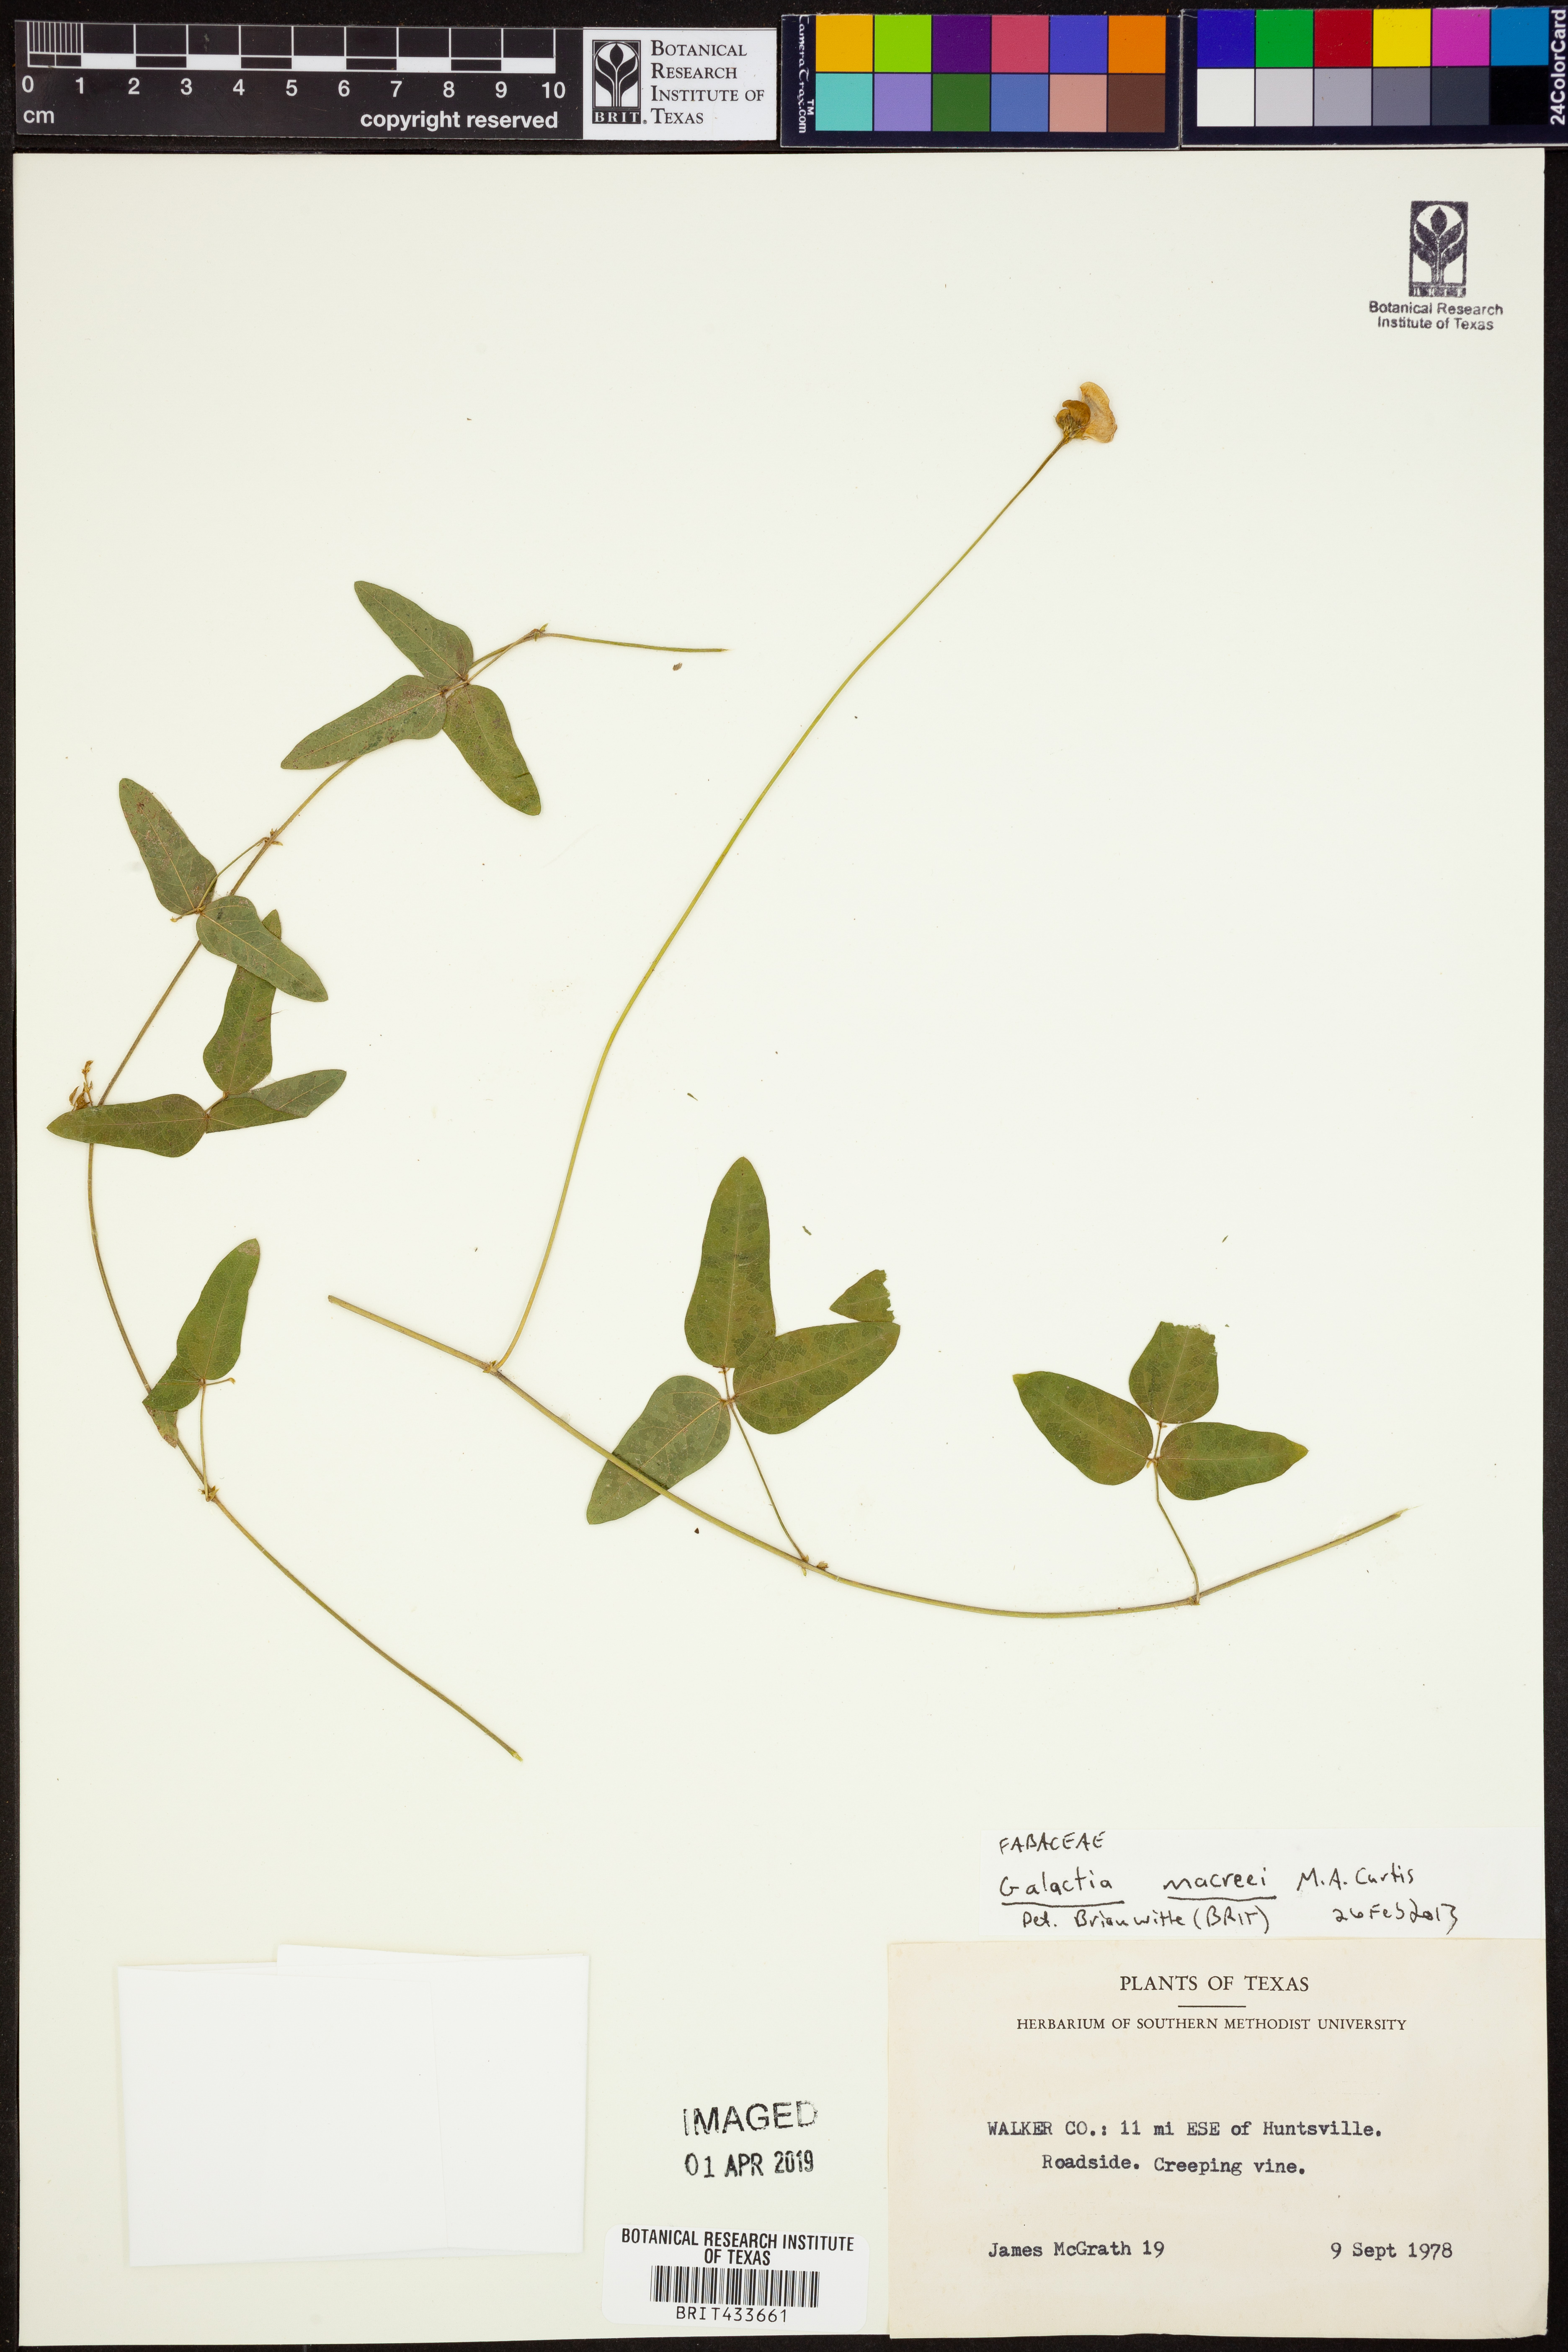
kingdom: Plantae
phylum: Tracheophyta
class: Magnoliopsida
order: Fabales
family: Fabaceae
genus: Galactia
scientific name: Galactia volubilis
